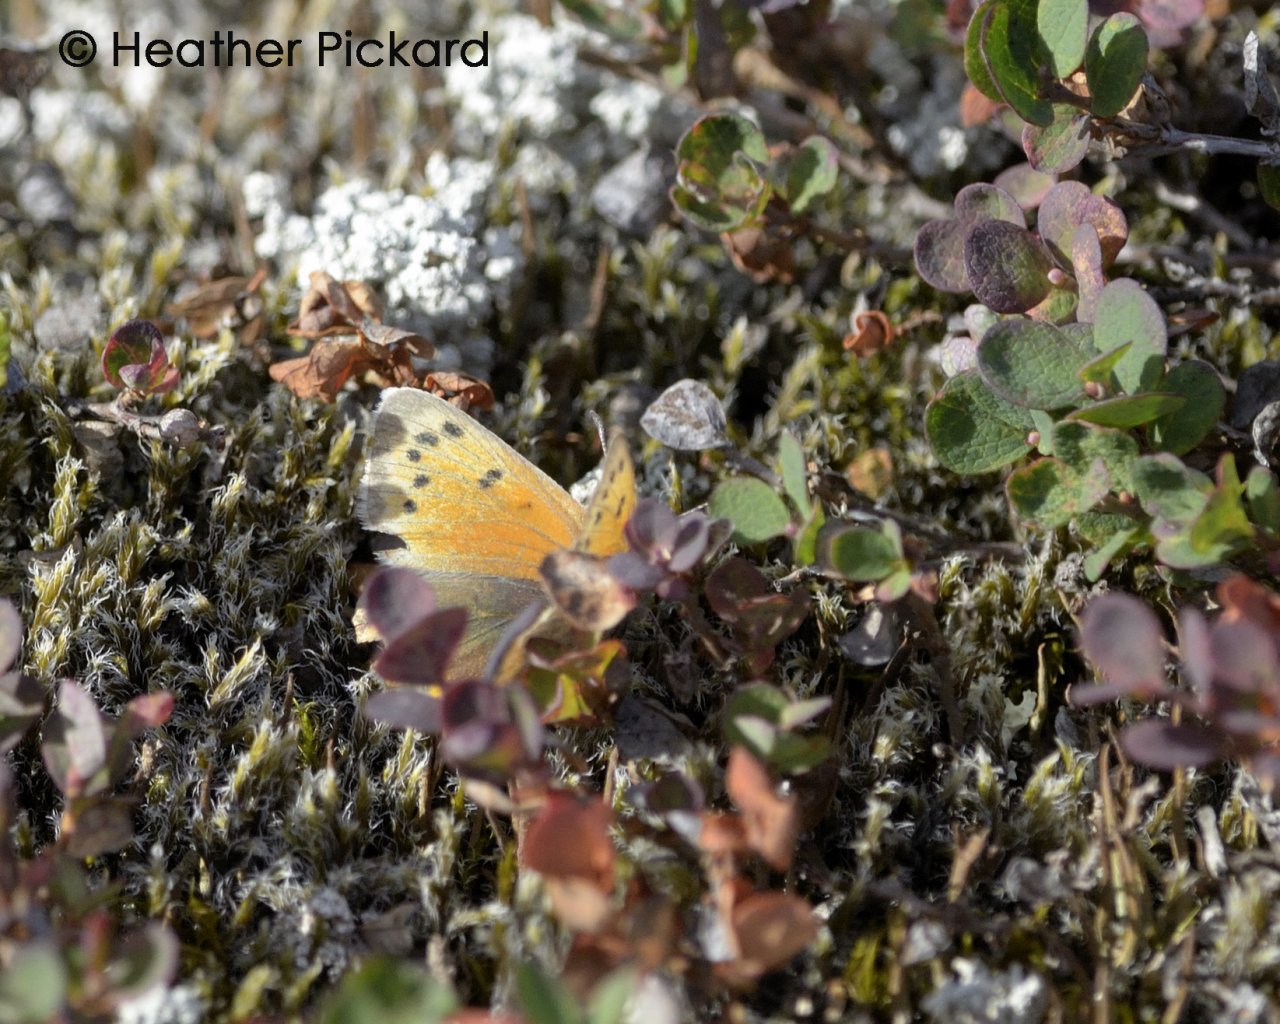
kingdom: Animalia
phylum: Arthropoda
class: Insecta
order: Lepidoptera
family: Lycaenidae
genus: Lycaena
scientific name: Lycaena phlaeas
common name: American Copper
